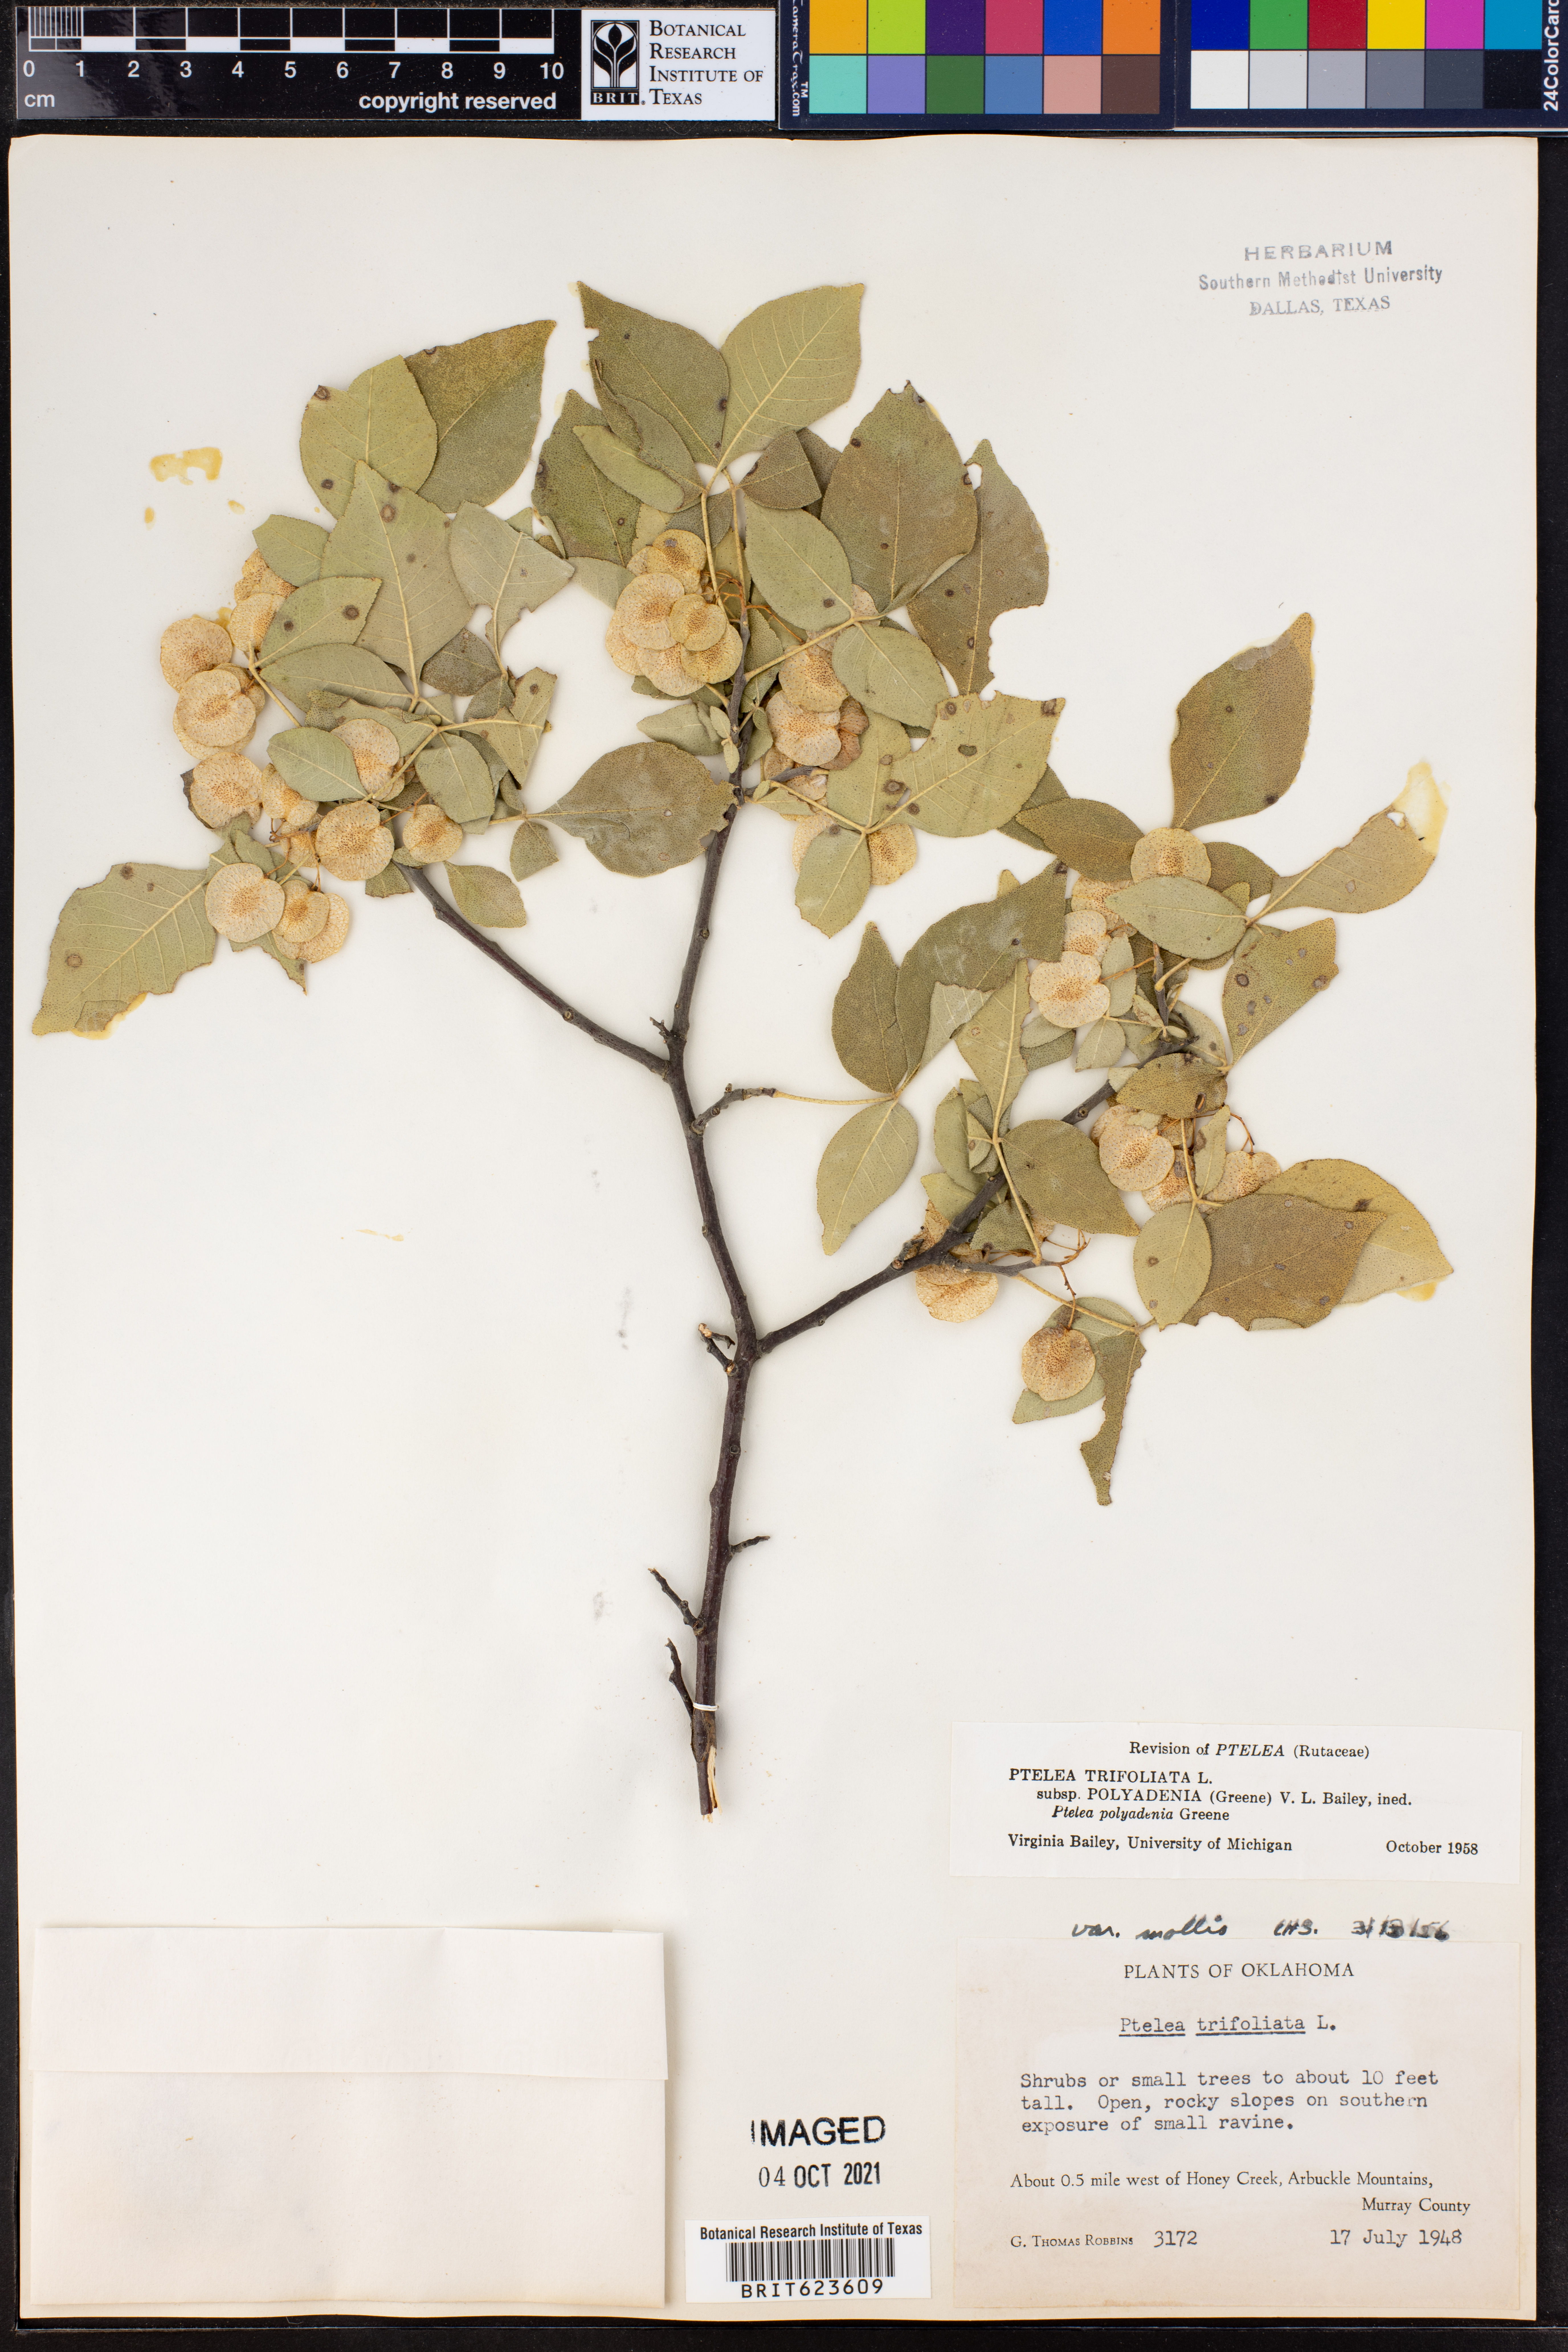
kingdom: Plantae
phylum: Tracheophyta
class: Magnoliopsida
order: Sapindales
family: Rutaceae
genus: Ptelea
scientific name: Ptelea trifoliata
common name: Common hop-tree
